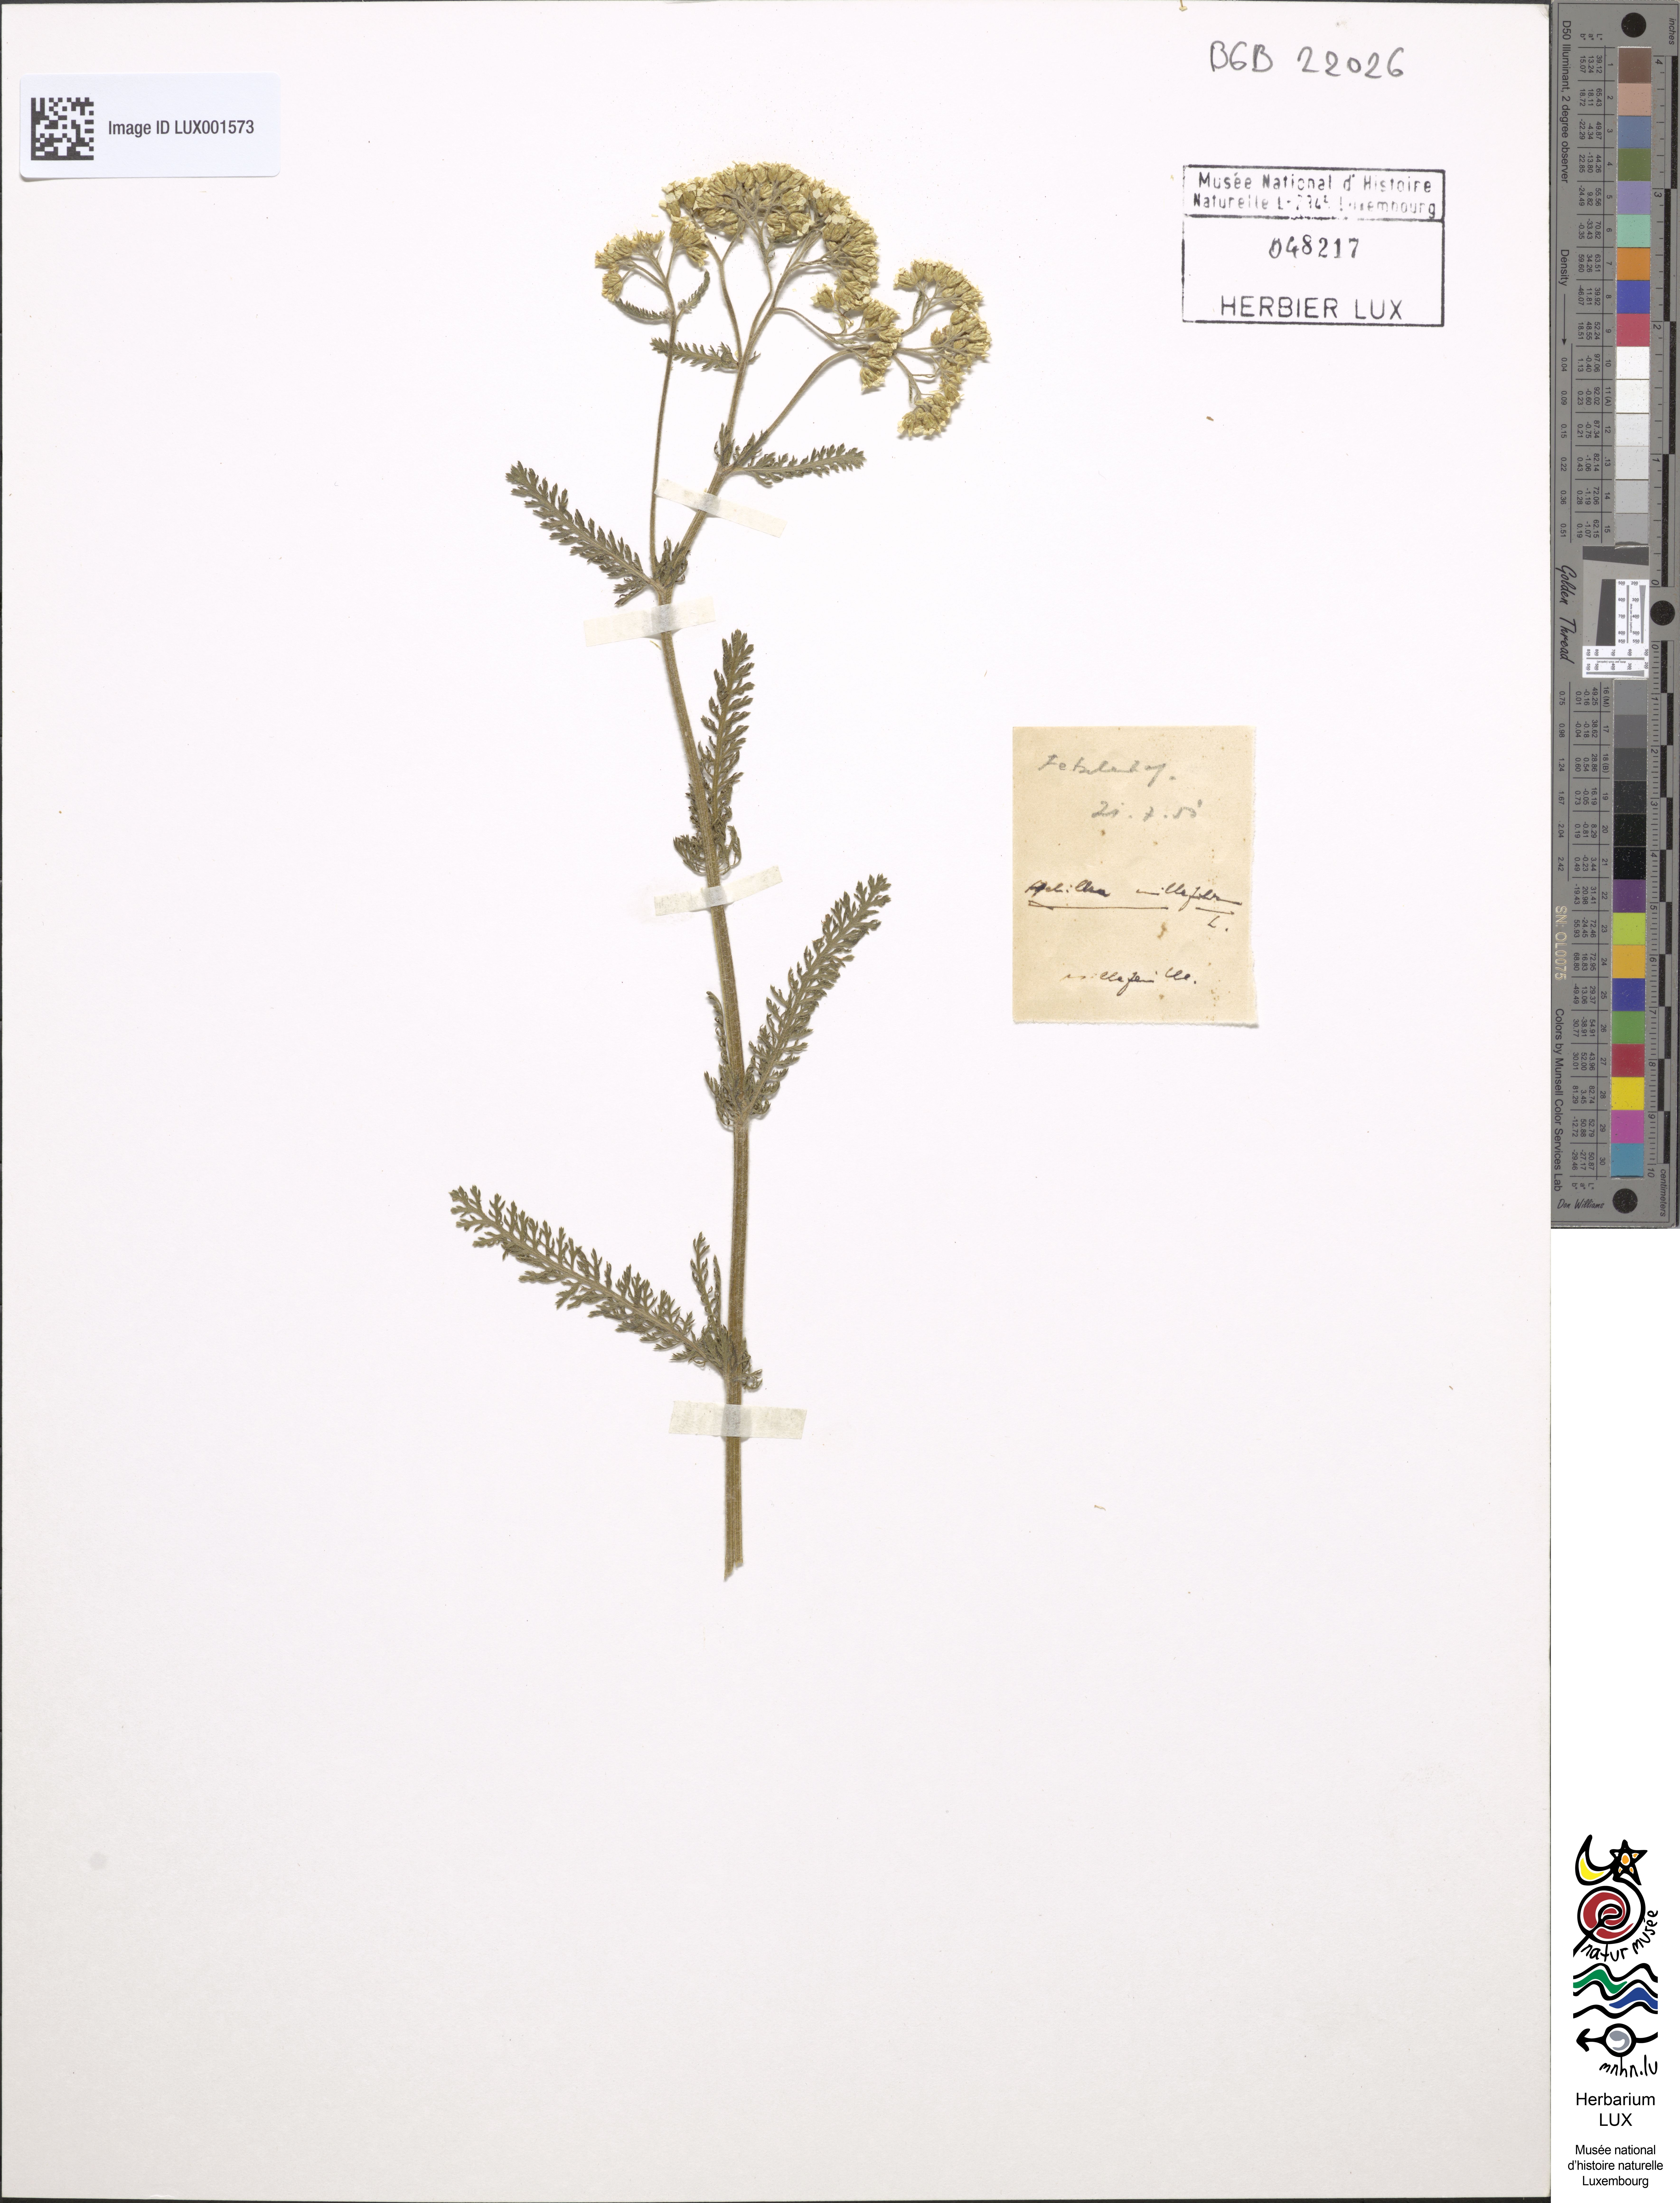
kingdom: Plantae
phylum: Tracheophyta
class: Magnoliopsida
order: Asterales
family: Asteraceae
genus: Achillea
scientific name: Achillea millefolium
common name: Yarrow
